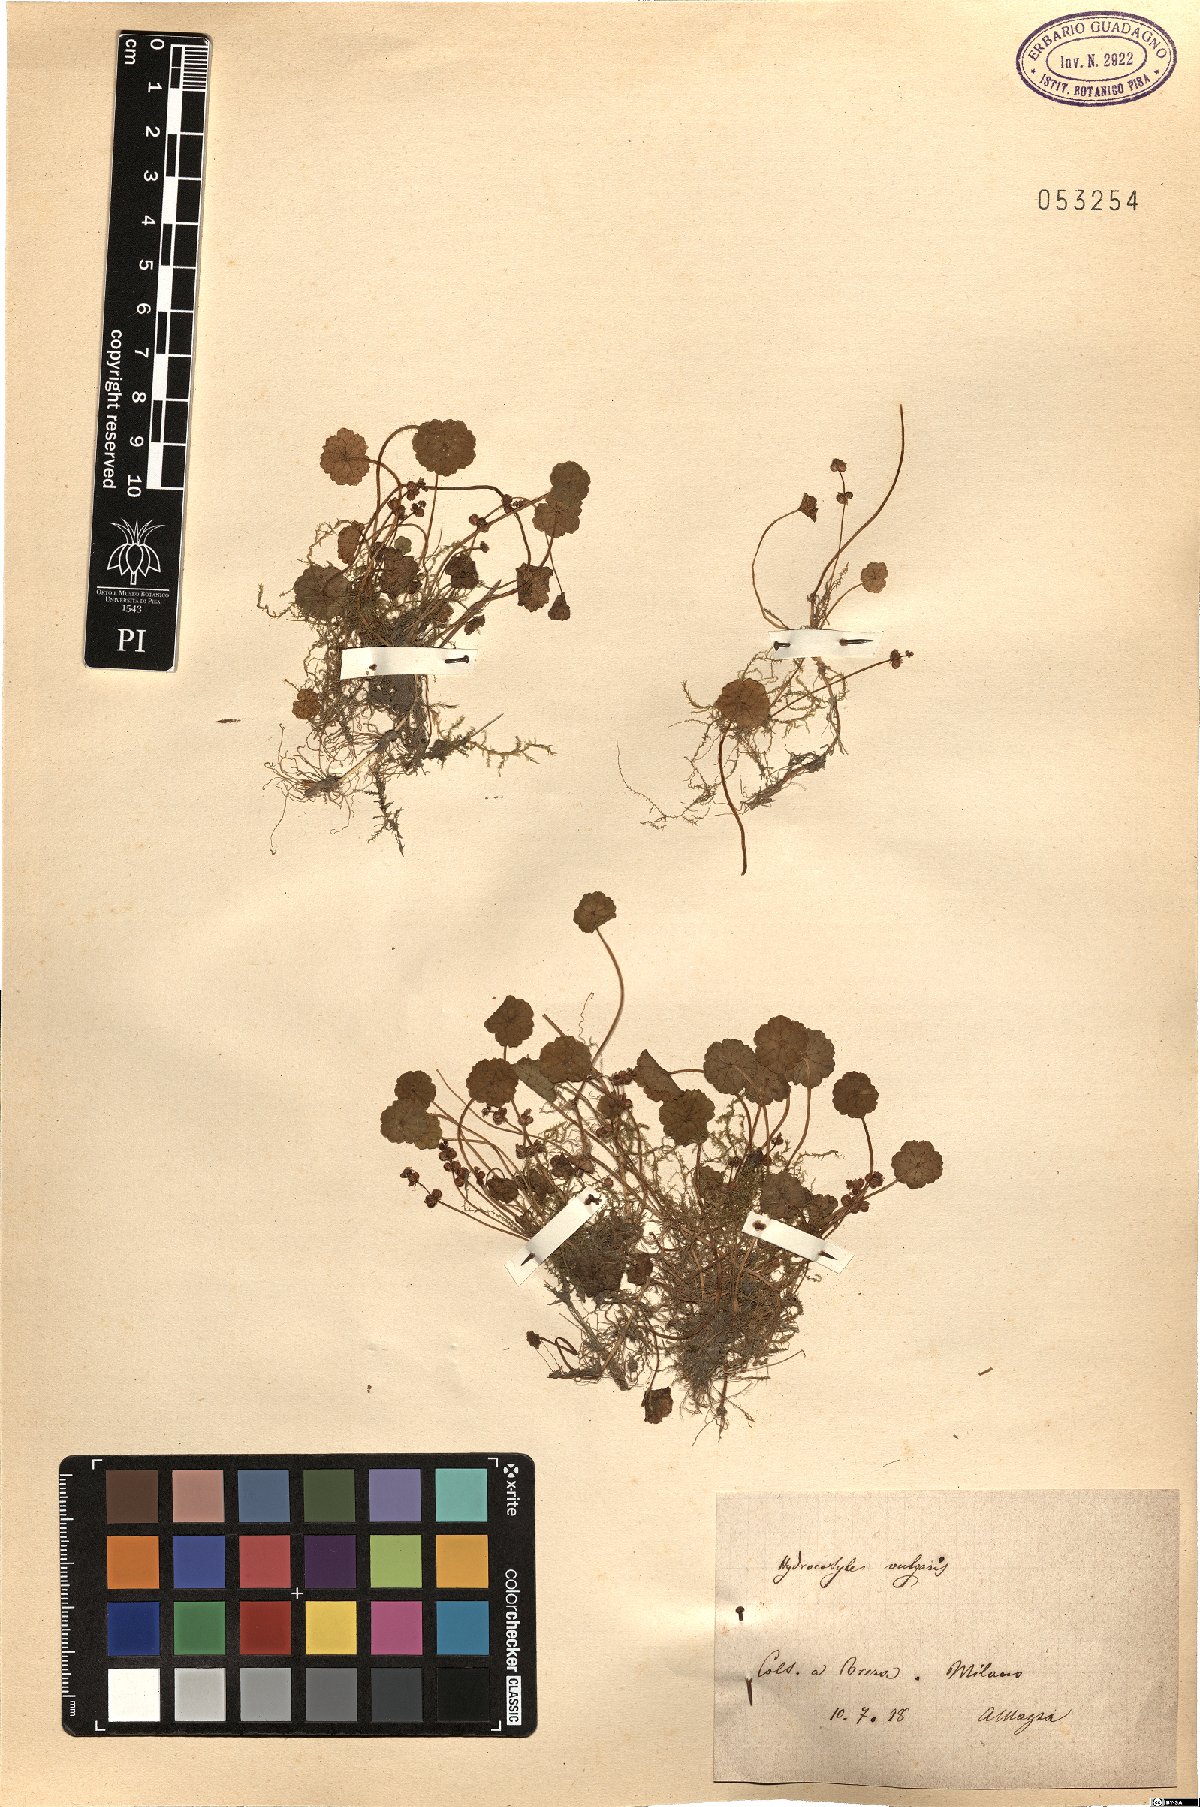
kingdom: Plantae
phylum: Tracheophyta
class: Magnoliopsida
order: Apiales
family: Araliaceae
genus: Hydrocotyle
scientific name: Hydrocotyle vulgaris
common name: Marsh pennywort
